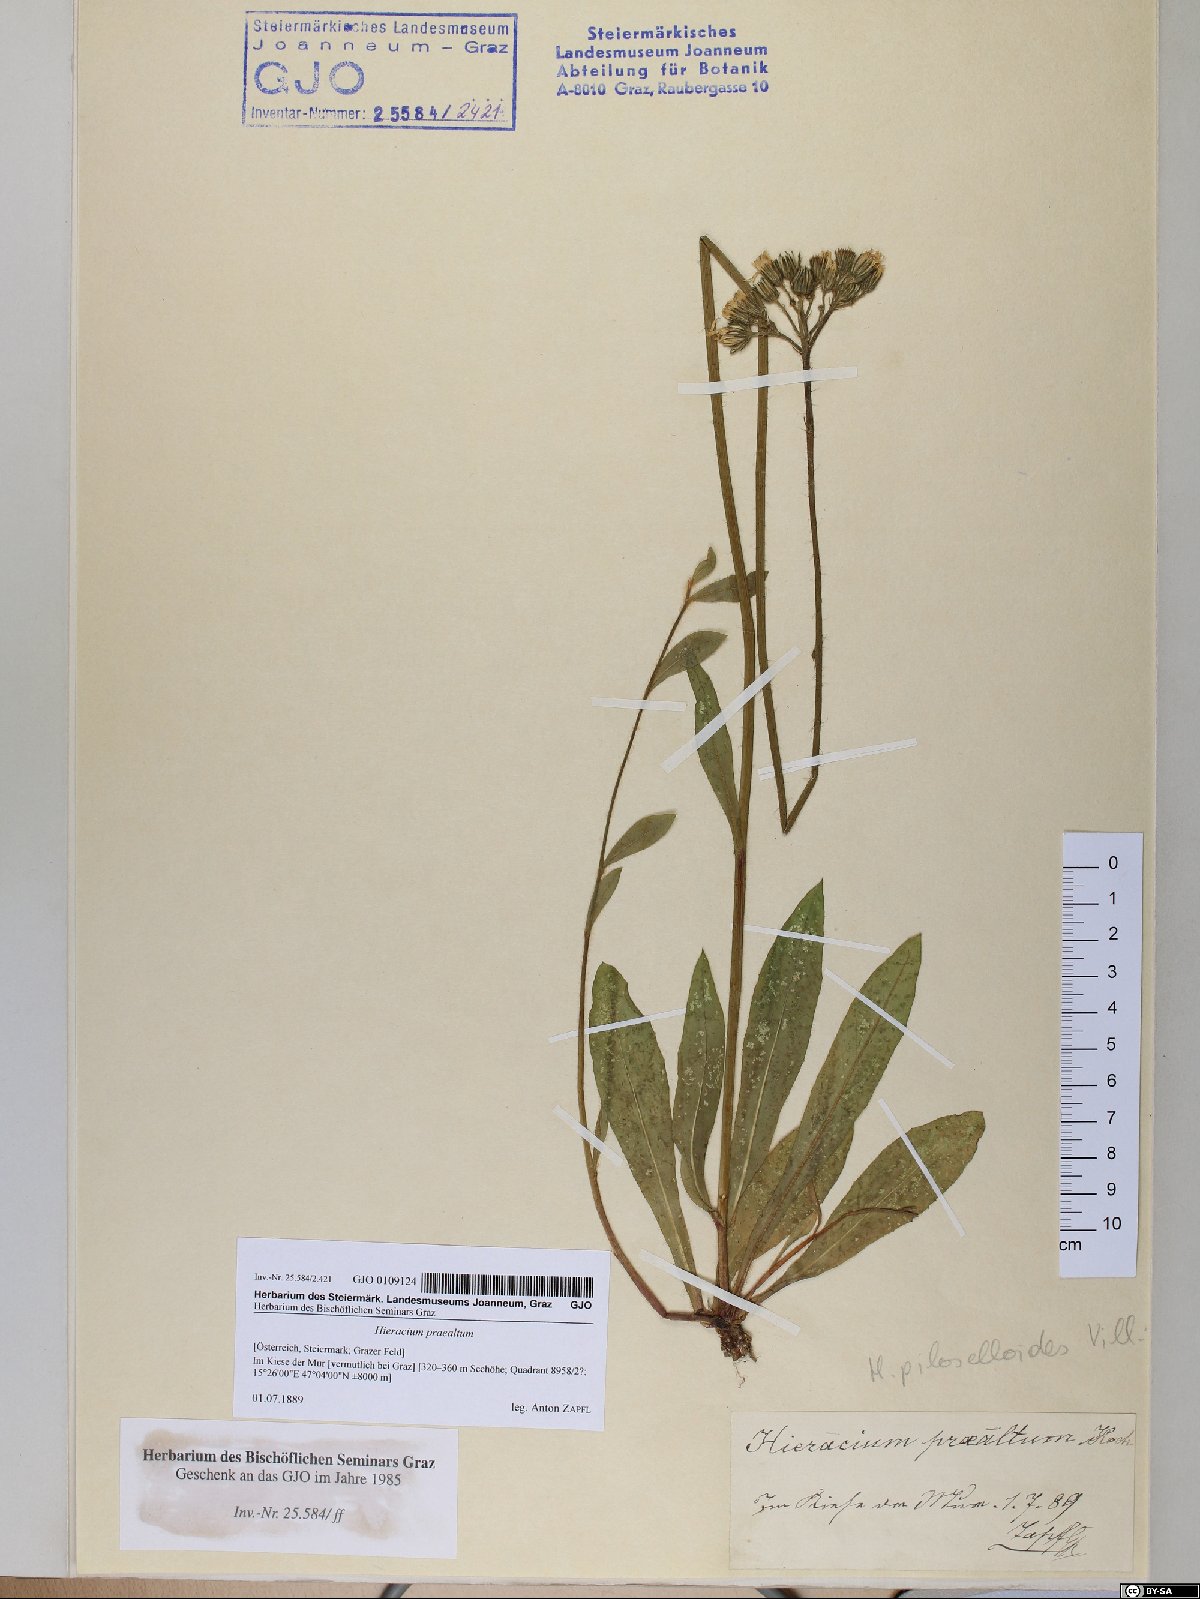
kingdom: Plantae
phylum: Tracheophyta
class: Magnoliopsida
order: Asterales
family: Asteraceae
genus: Pilosella
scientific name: Pilosella piloselloides
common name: Glaucous king-devil
